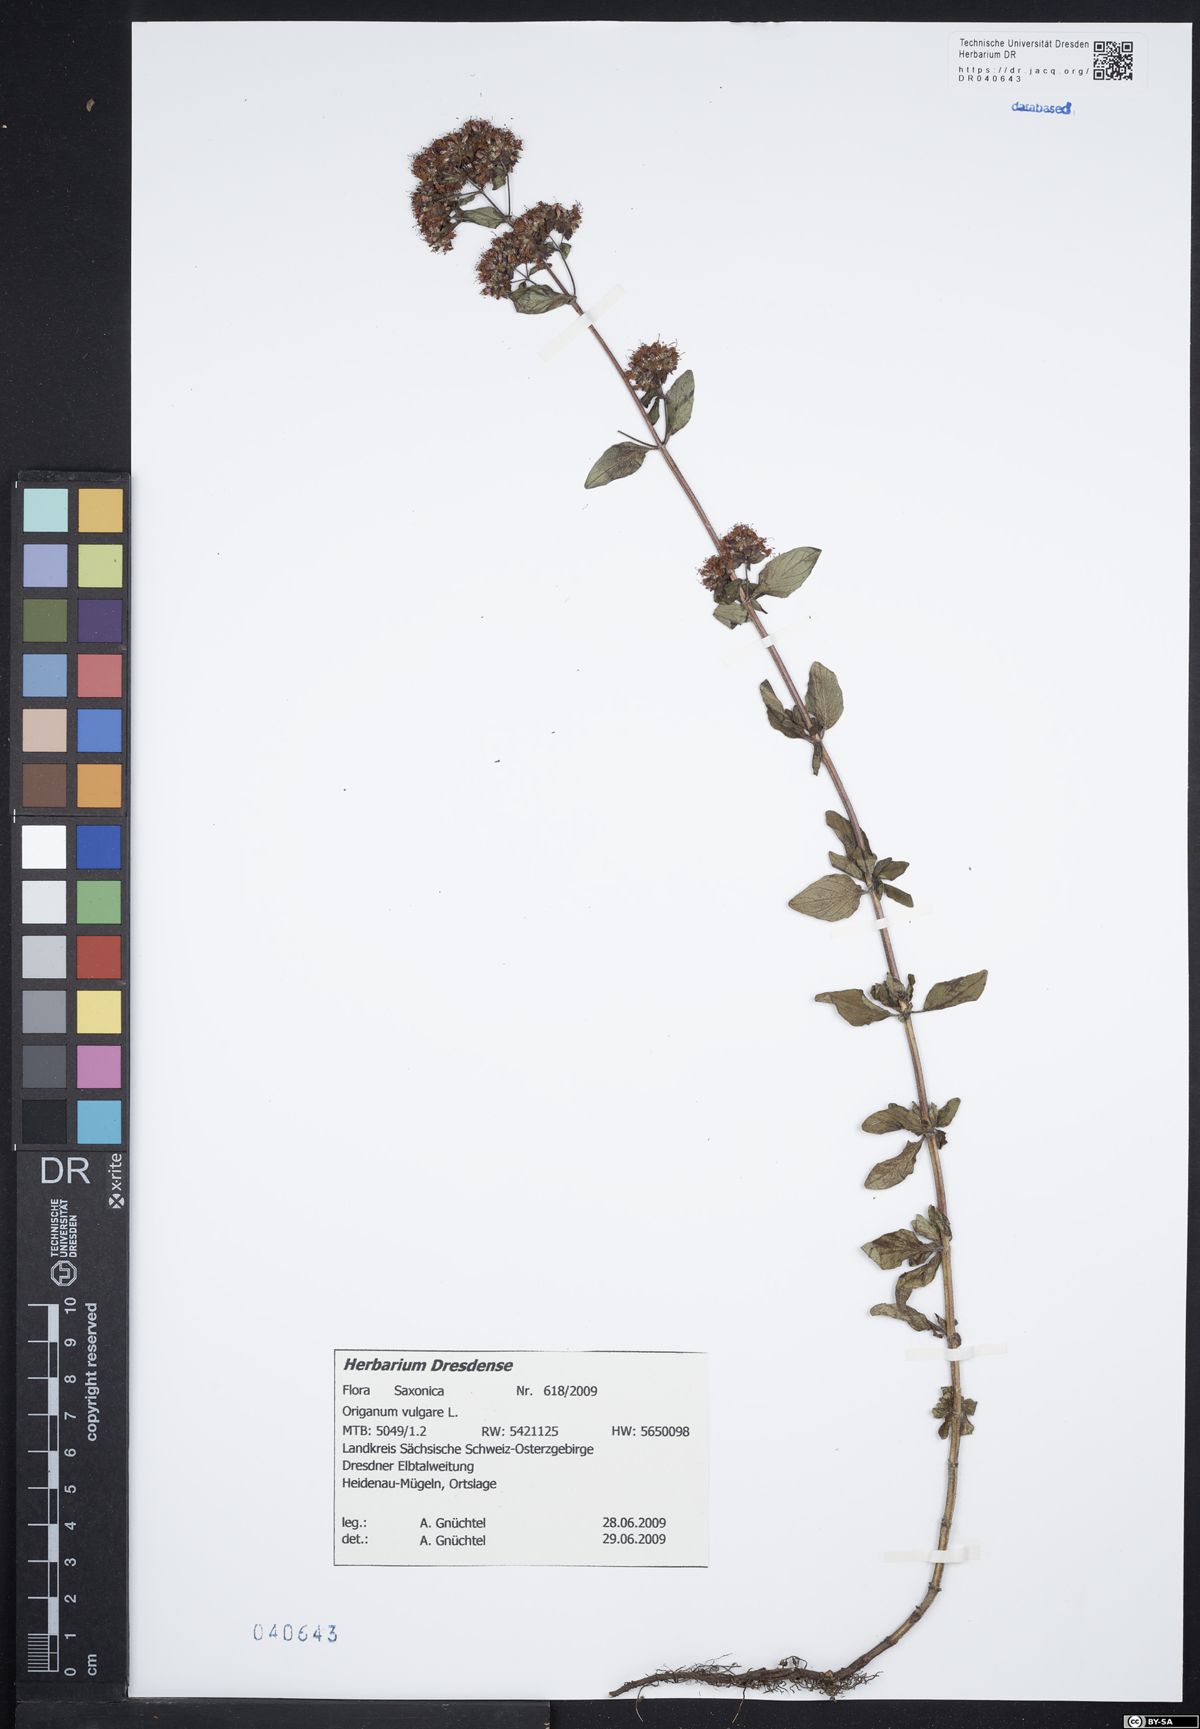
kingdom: Plantae
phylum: Tracheophyta
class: Magnoliopsida
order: Lamiales
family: Lamiaceae
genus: Origanum
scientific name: Origanum vulgare
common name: Wild marjoram
